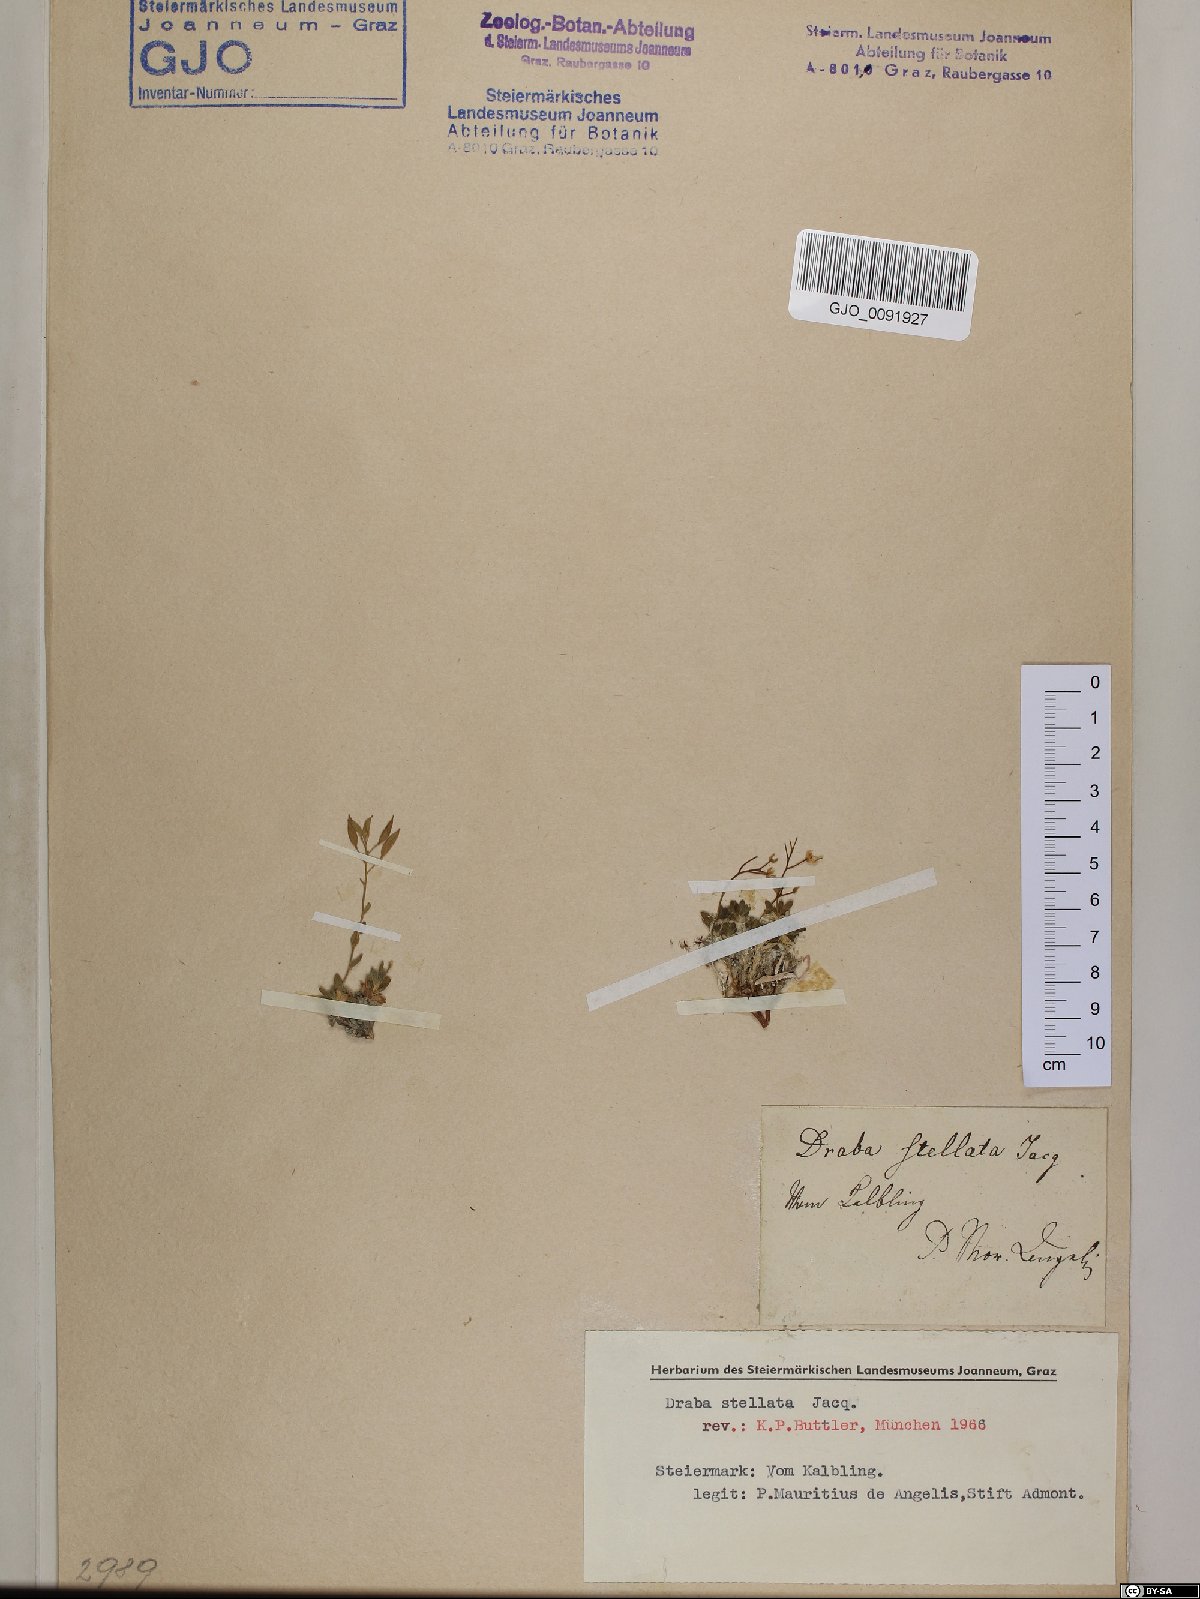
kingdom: Plantae
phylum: Tracheophyta
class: Magnoliopsida
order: Brassicales
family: Brassicaceae
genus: Draba
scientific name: Draba stellata
